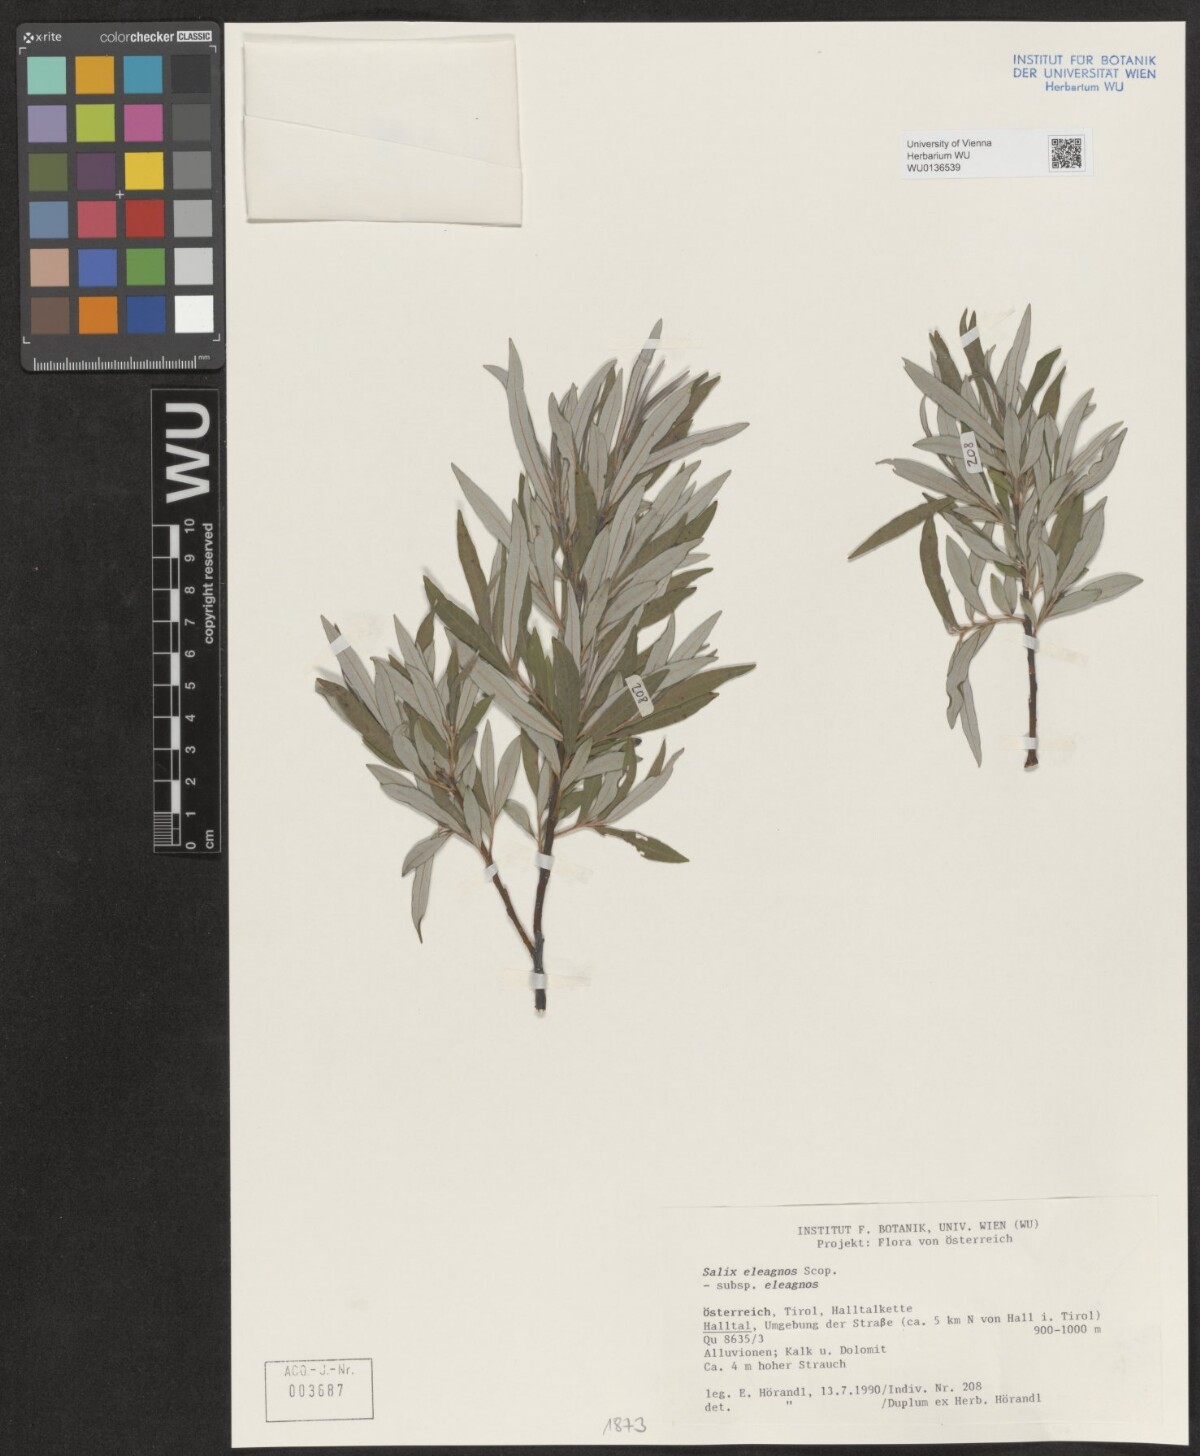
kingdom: Plantae
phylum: Tracheophyta
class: Magnoliopsida
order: Malpighiales
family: Salicaceae
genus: Salix
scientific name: Salix eleagnos
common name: Elaeagnus willow
